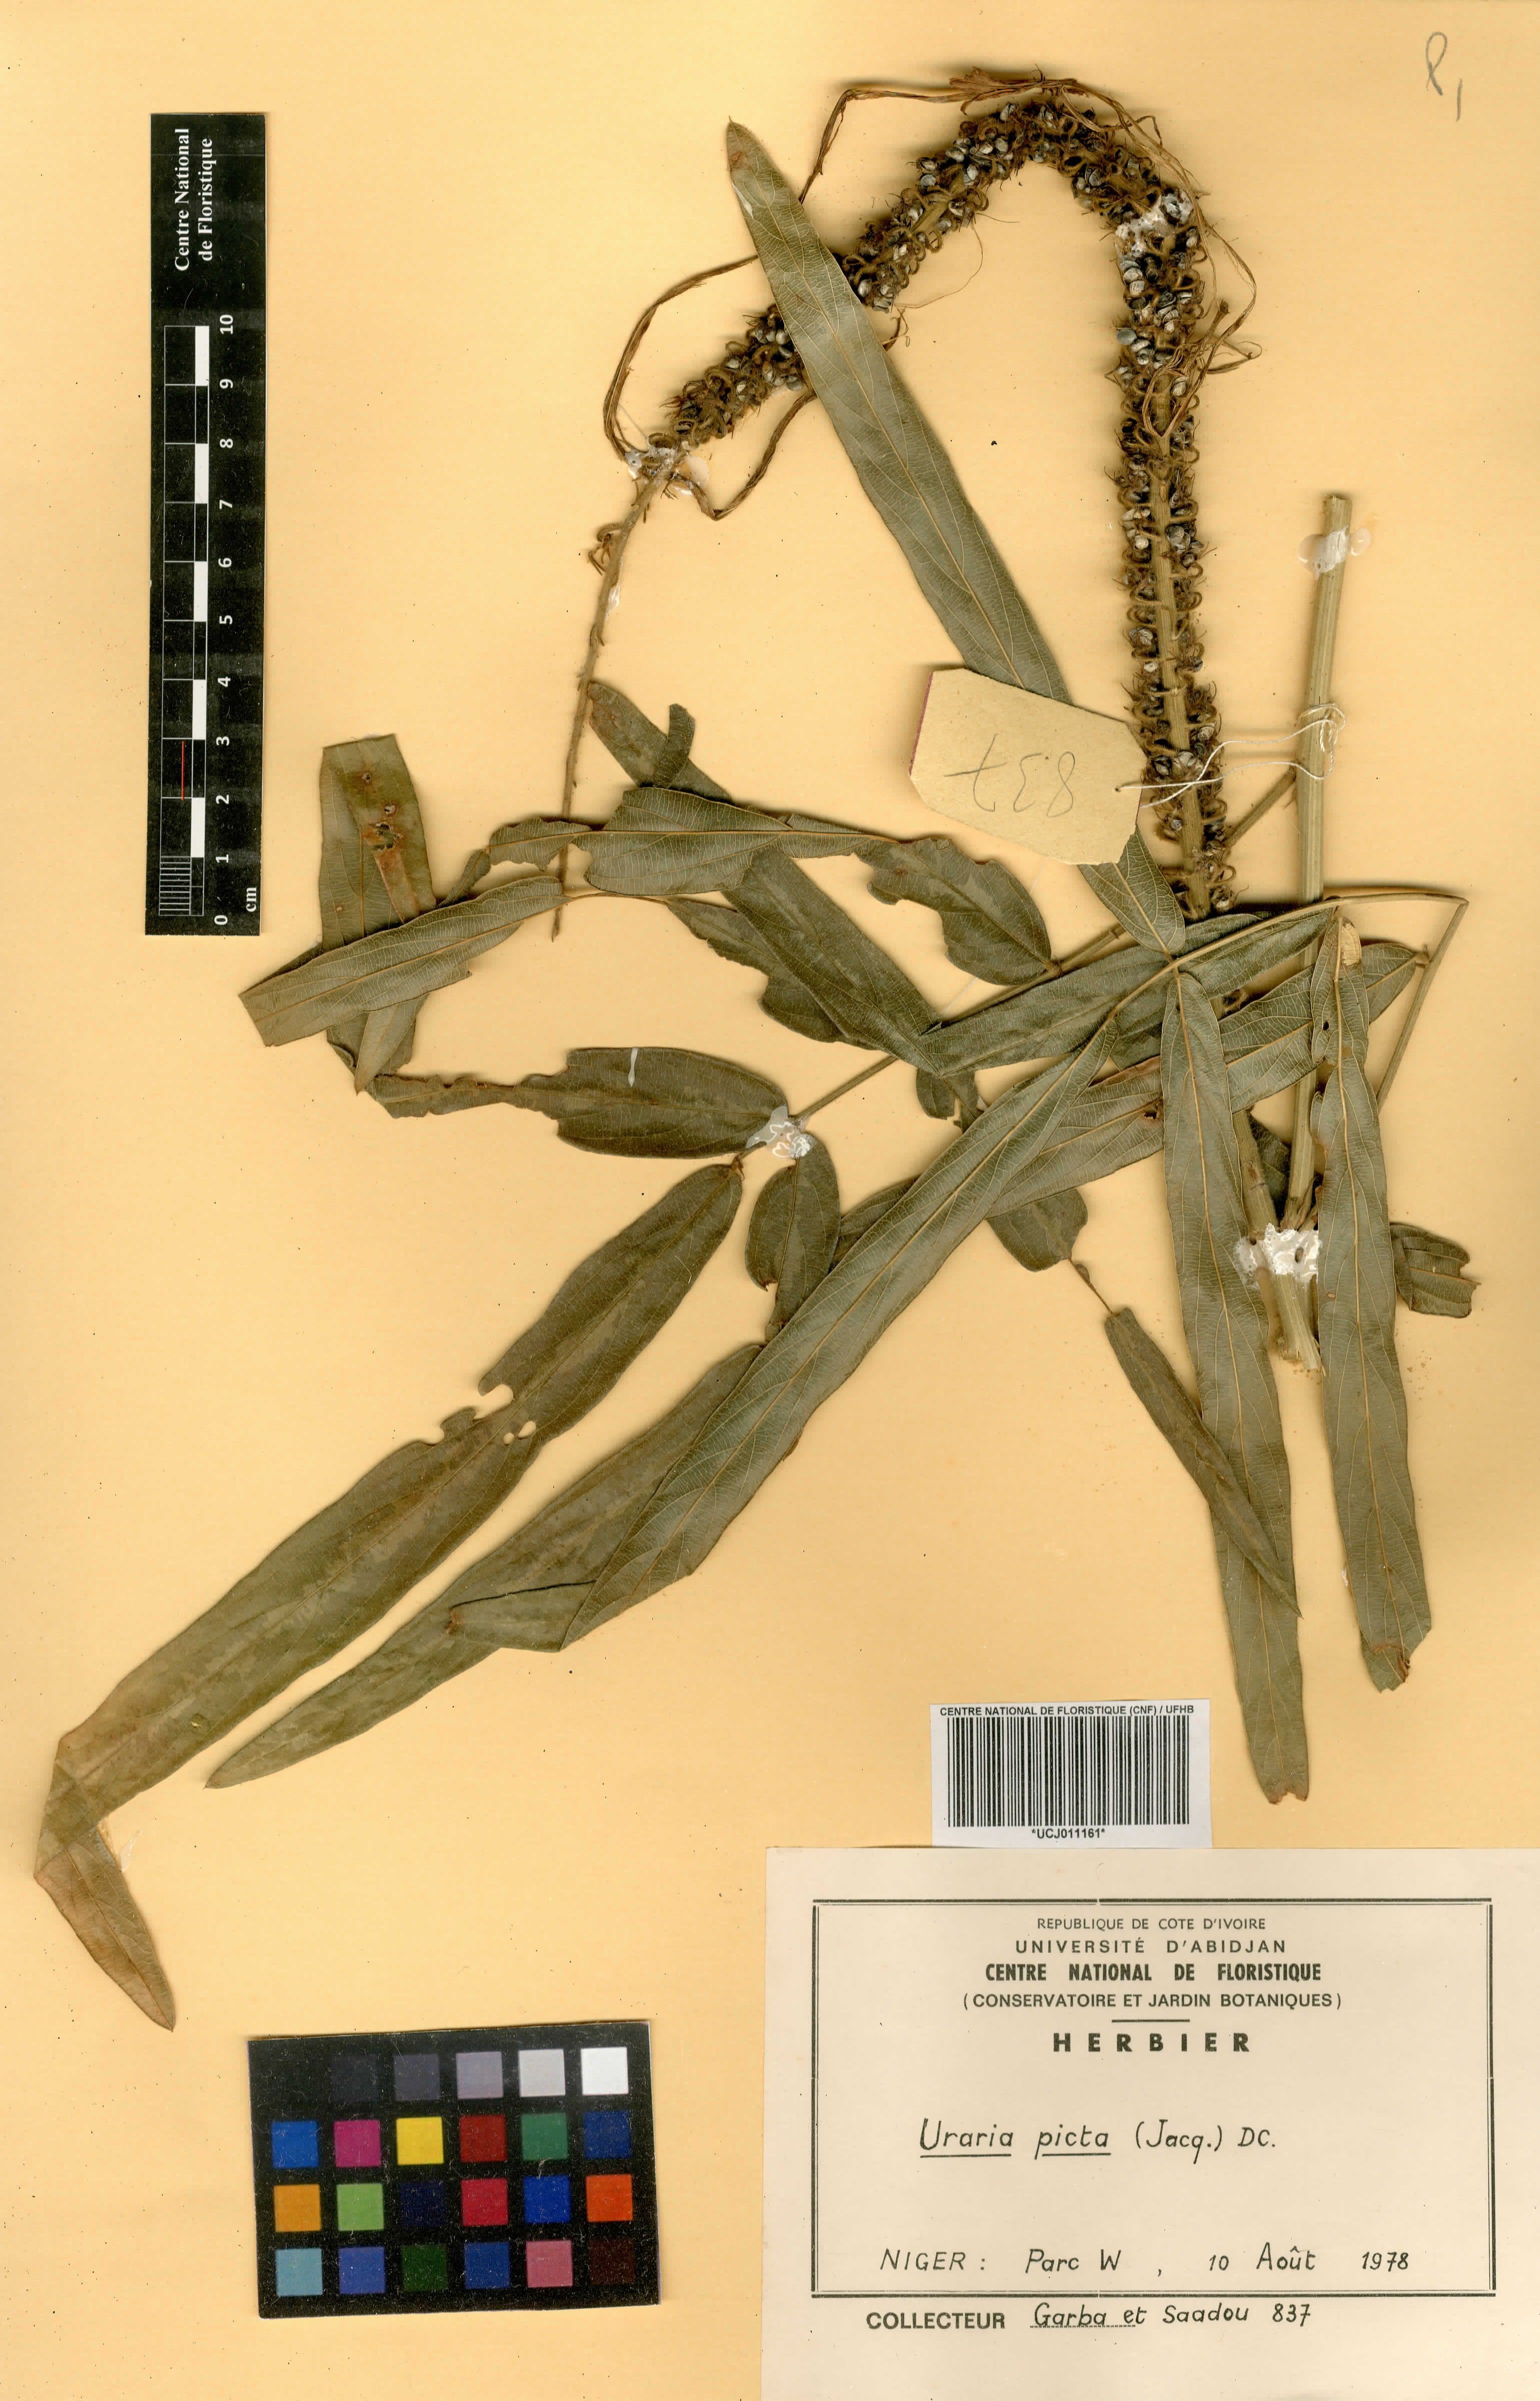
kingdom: Plantae
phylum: Tracheophyta
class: Magnoliopsida
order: Fabales
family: Fabaceae
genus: Uraria
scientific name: Uraria picta
